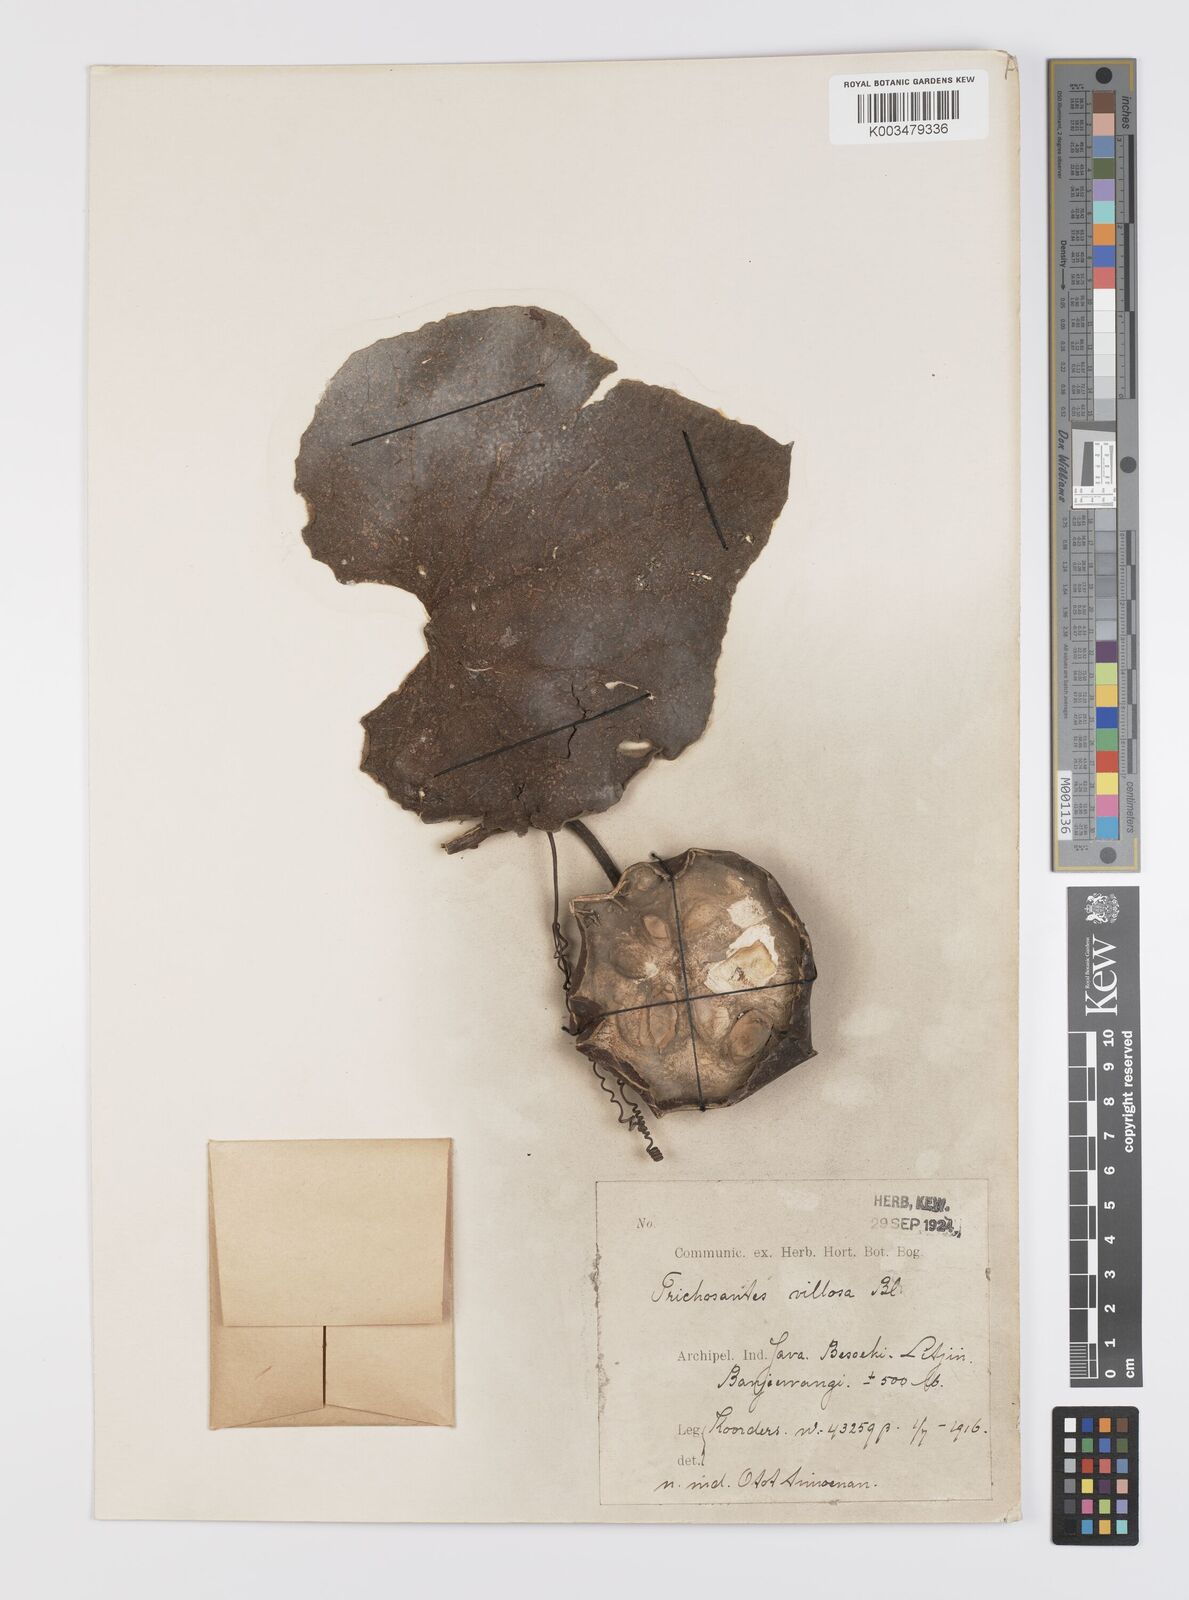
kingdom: Plantae
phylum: Tracheophyta
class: Magnoliopsida
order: Cucurbitales
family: Cucurbitaceae
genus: Trichosanthes
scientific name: Trichosanthes villosa
